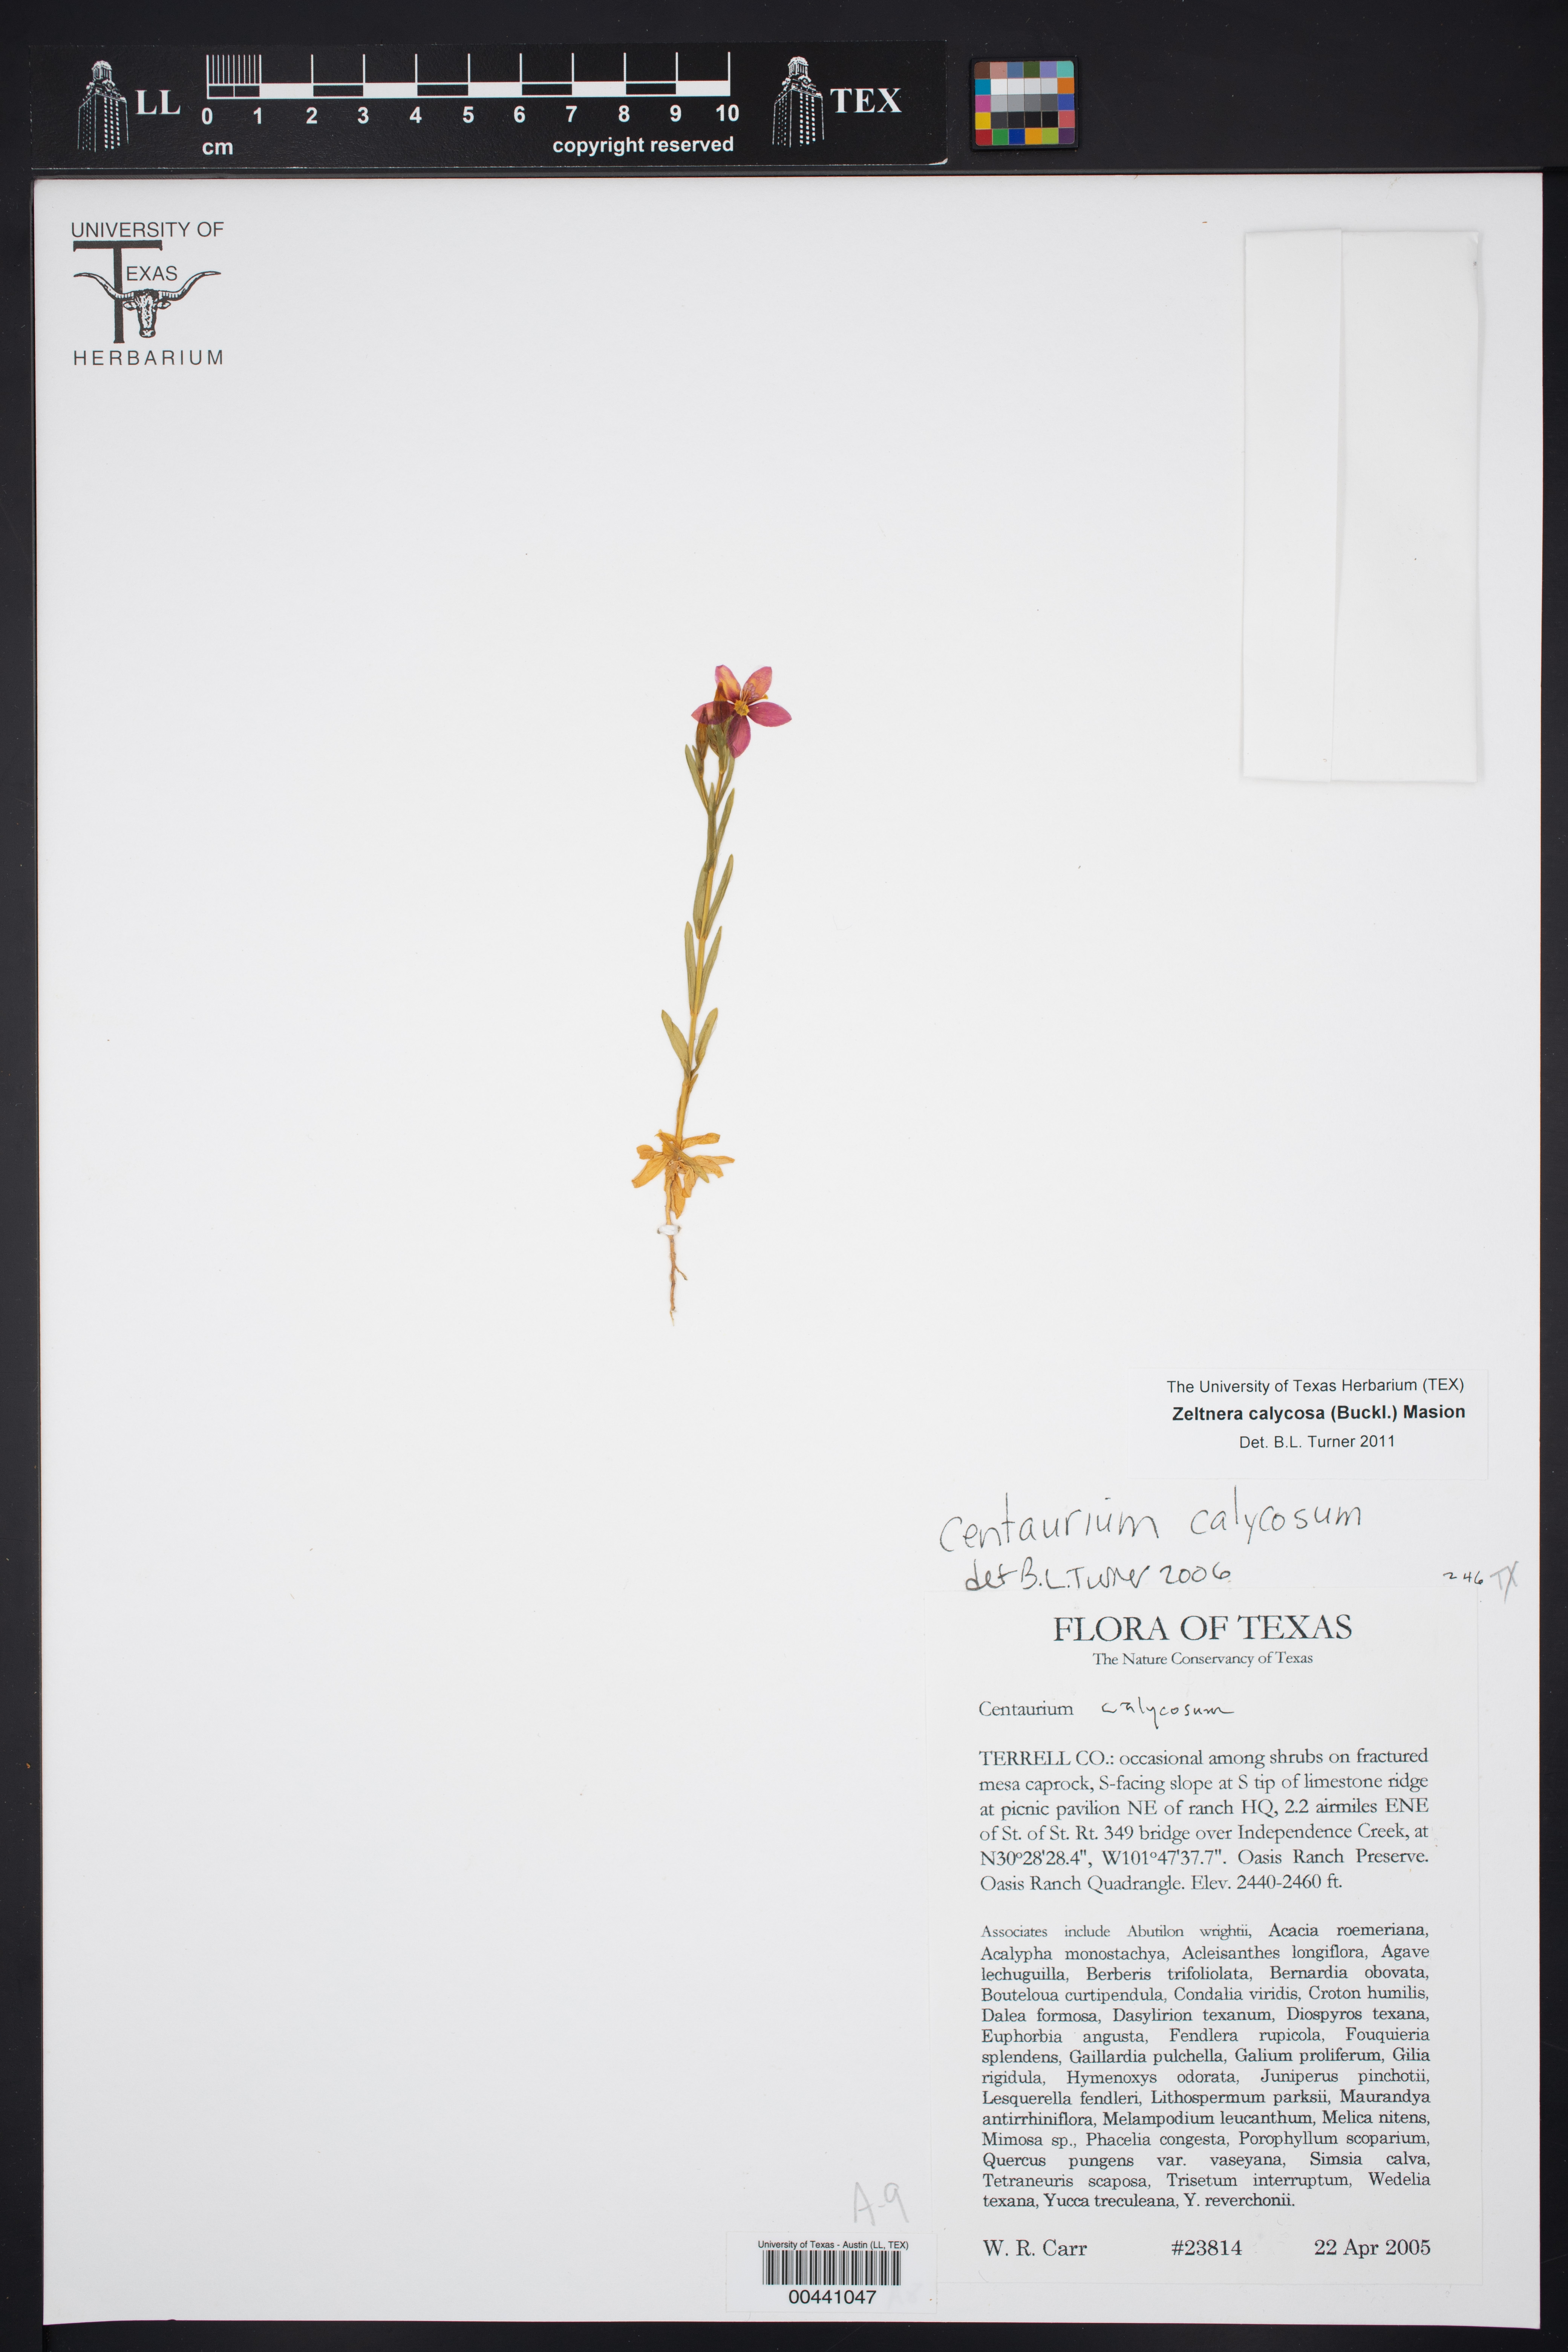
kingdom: Plantae
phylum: Tracheophyta
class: Magnoliopsida
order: Gentianales
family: Gentianaceae
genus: Zeltnera
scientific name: Zeltnera calycosa
